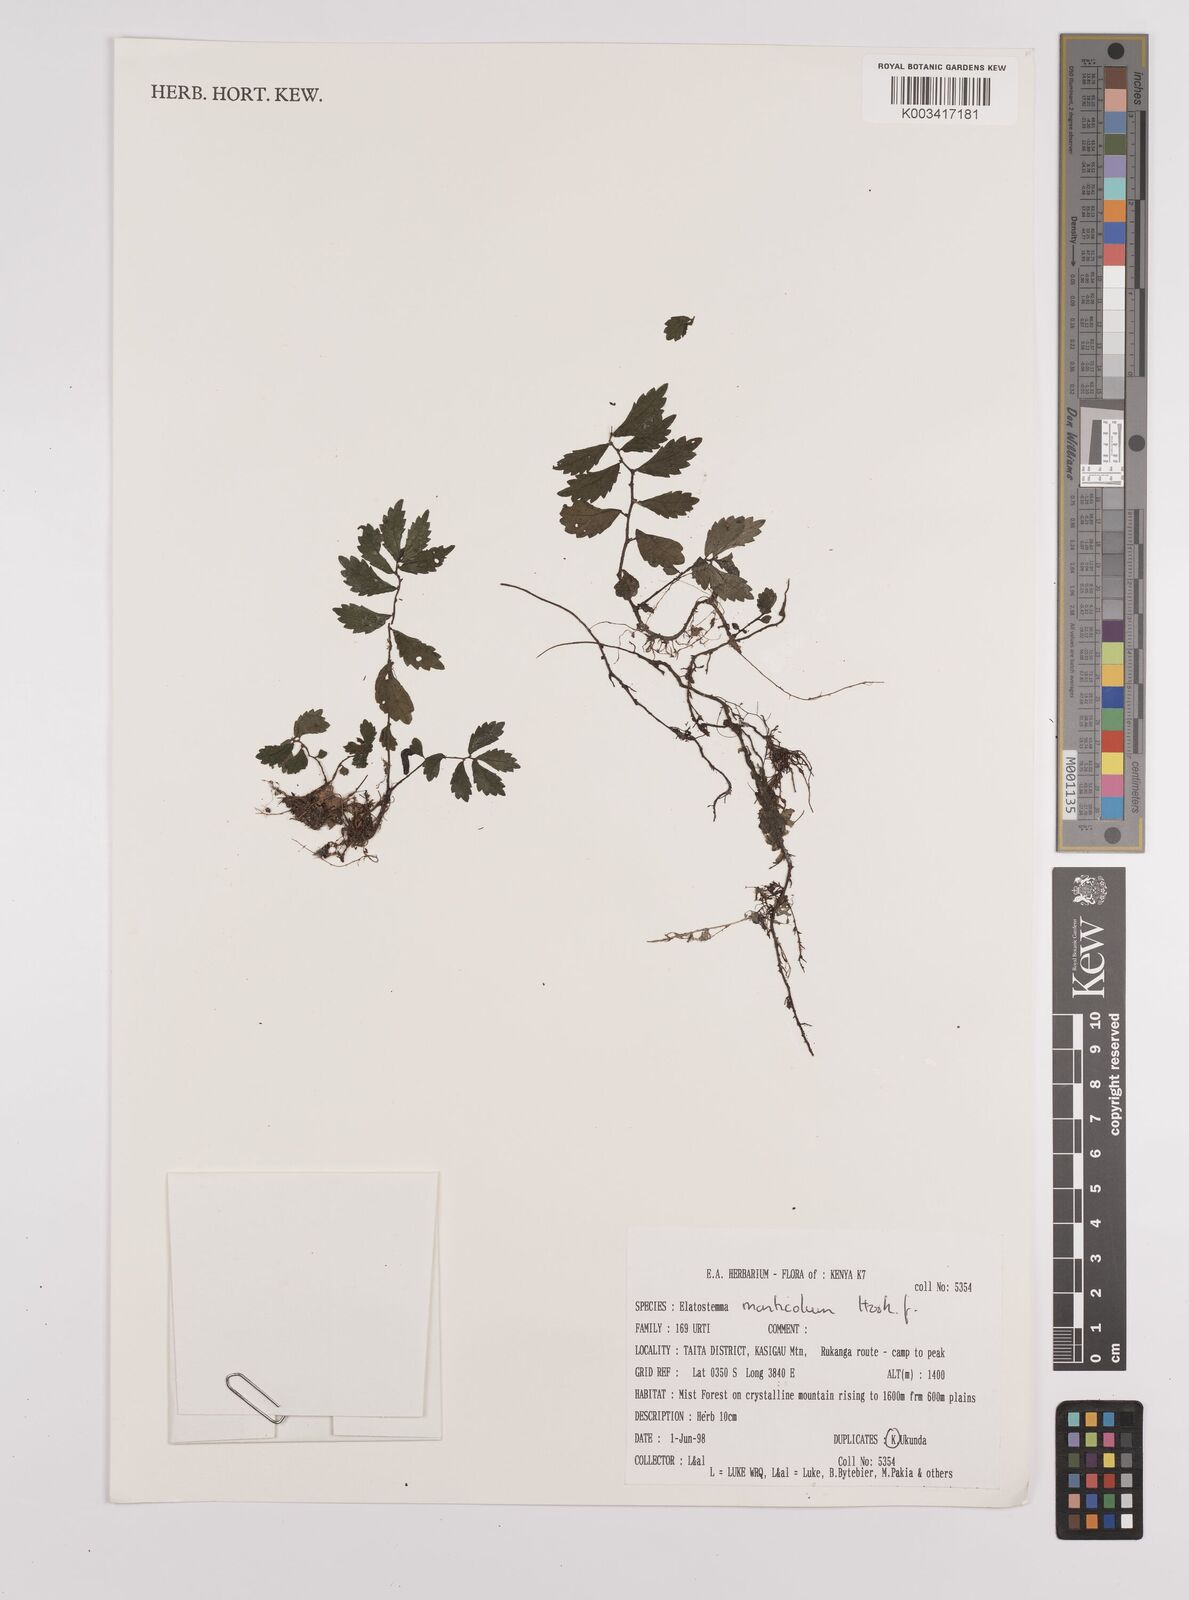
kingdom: Plantae
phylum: Tracheophyta
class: Magnoliopsida
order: Rosales
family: Urticaceae
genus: Elatostema
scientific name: Elatostema monticola
